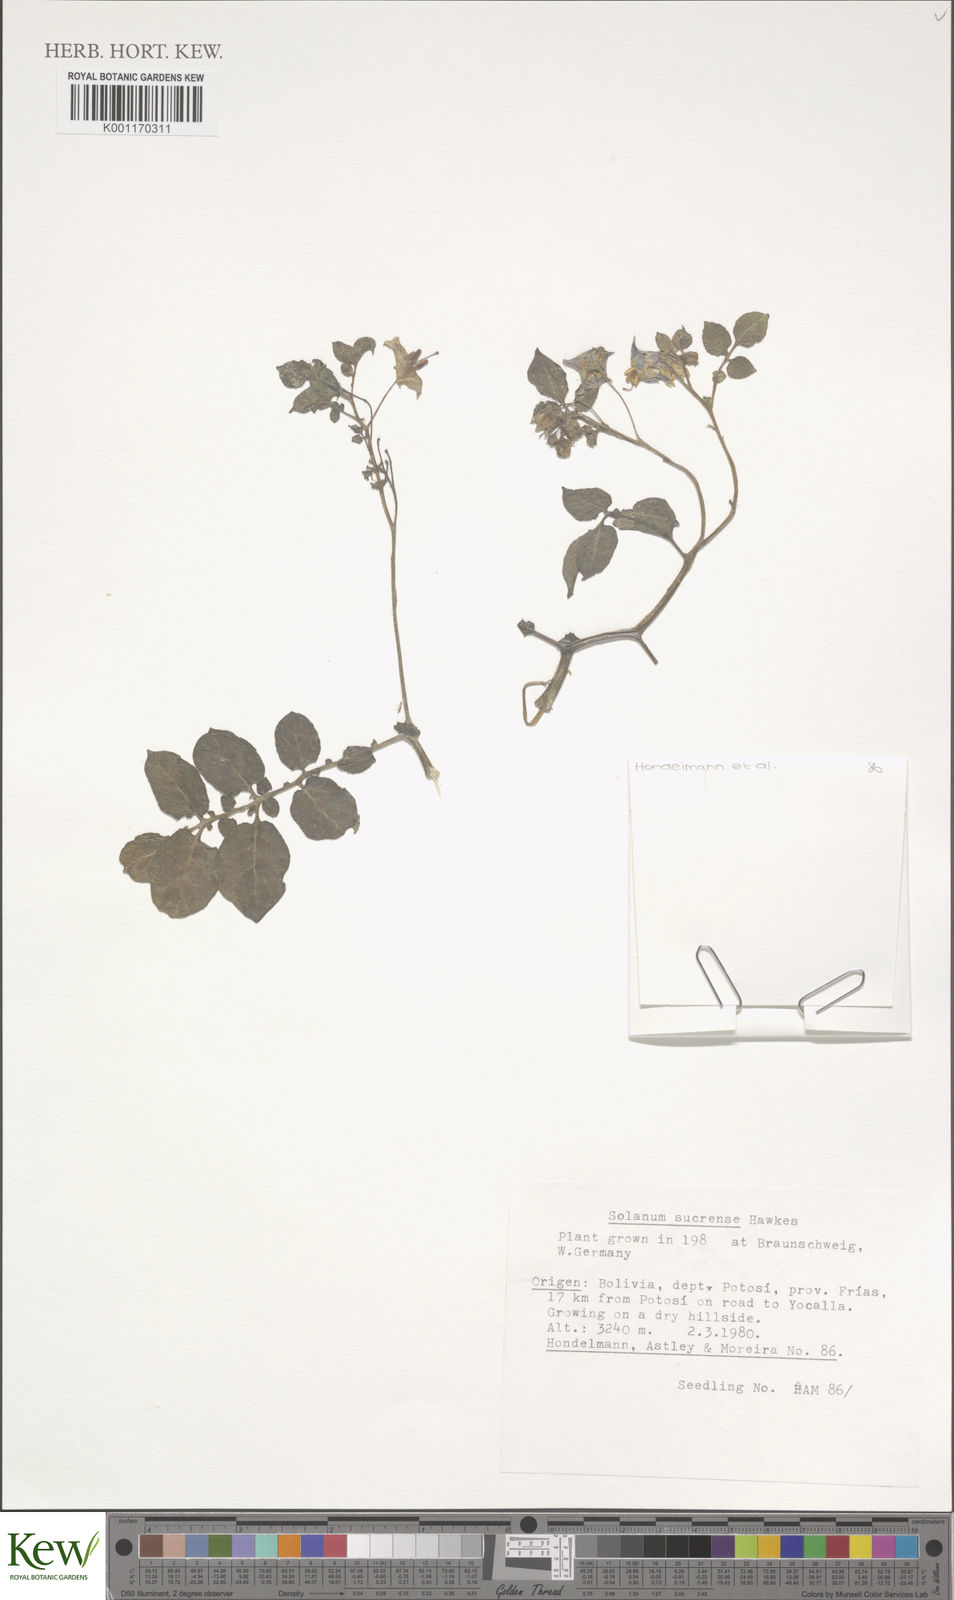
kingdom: Plantae
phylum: Tracheophyta
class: Magnoliopsida
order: Solanales
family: Solanaceae
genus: Solanum
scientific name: Solanum brevicaule
